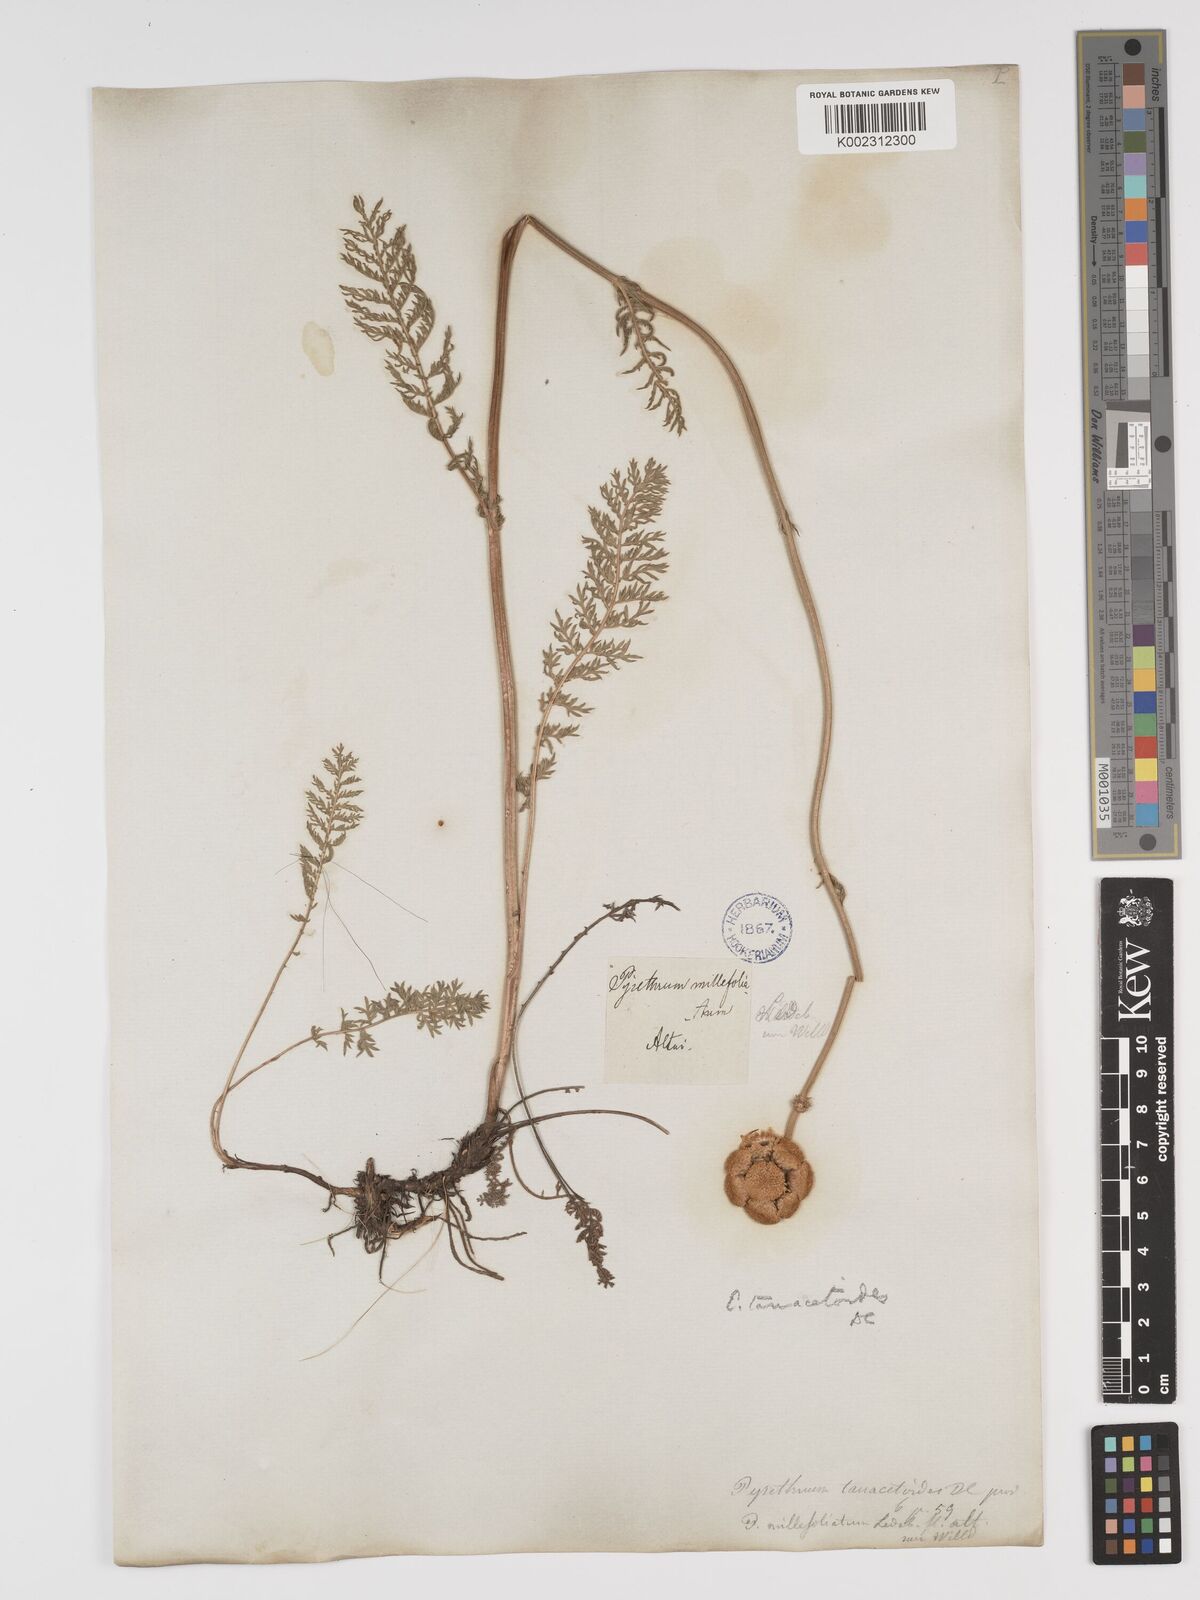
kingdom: Plantae
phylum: Tracheophyta
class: Magnoliopsida
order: Asterales
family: Asteraceae
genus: Tanacetum
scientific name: Tanacetum tanacetoides
